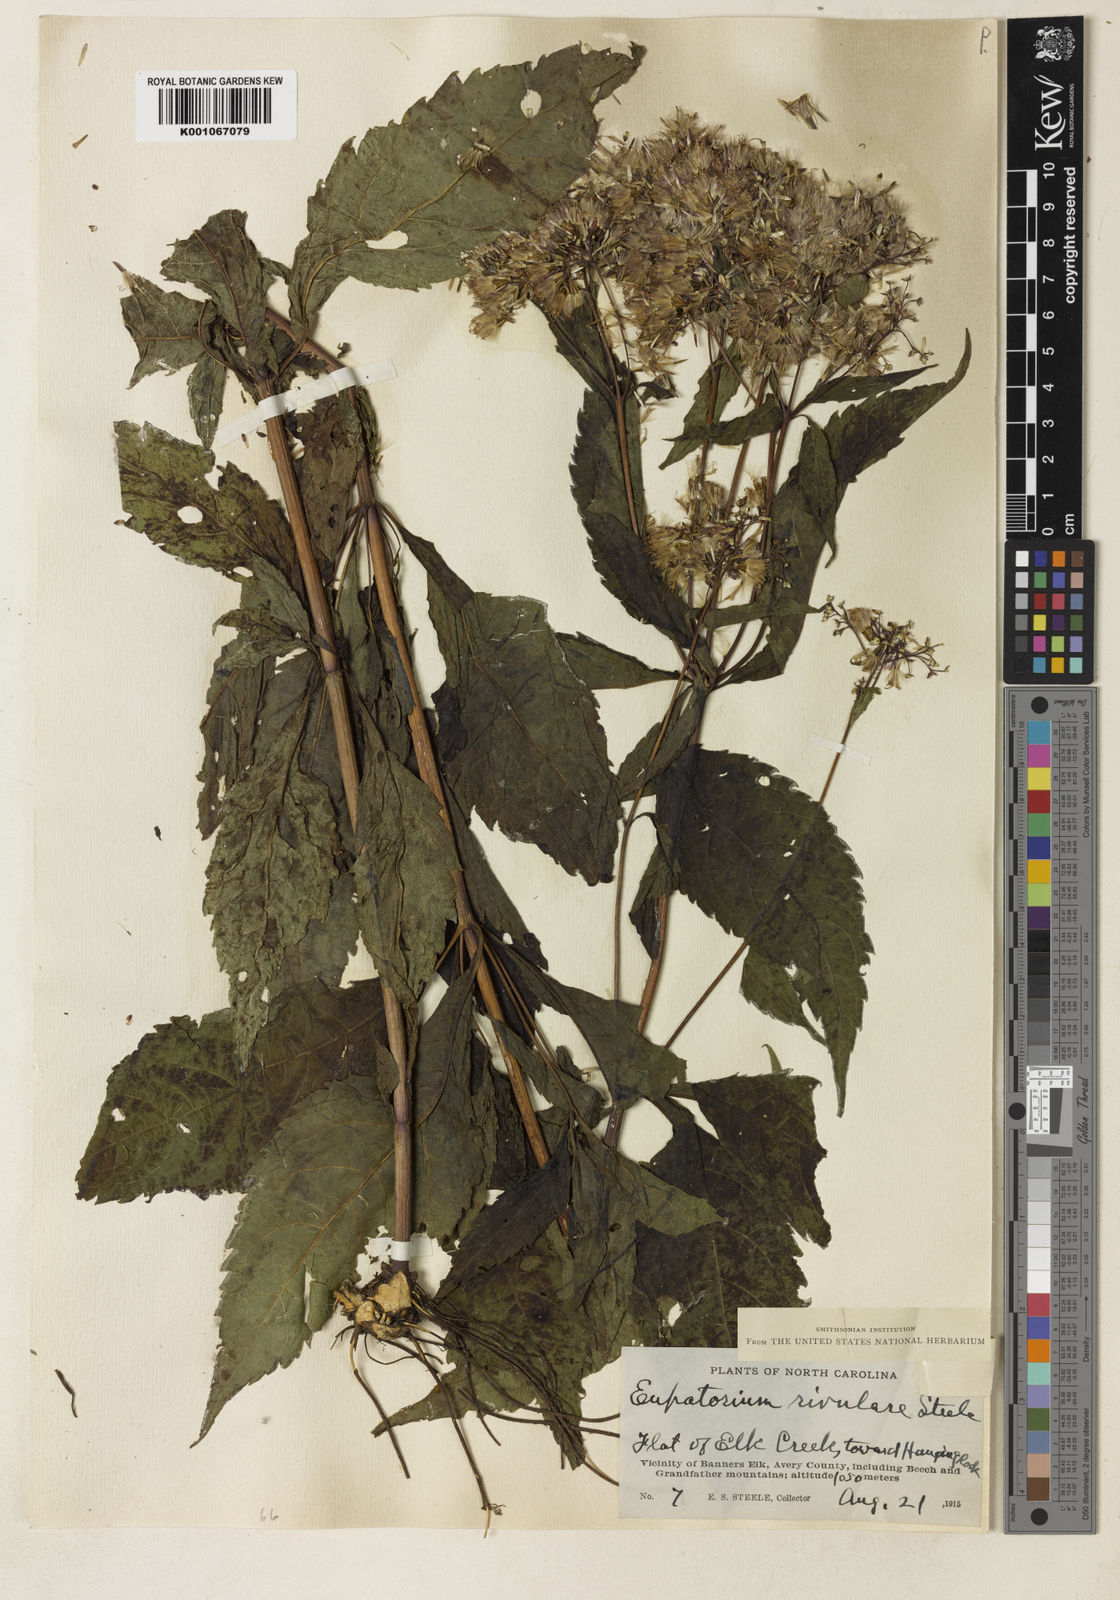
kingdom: Plantae
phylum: Tracheophyta
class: Magnoliopsida
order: Asterales
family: Asteraceae
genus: Eupatorium
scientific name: Eupatorium
